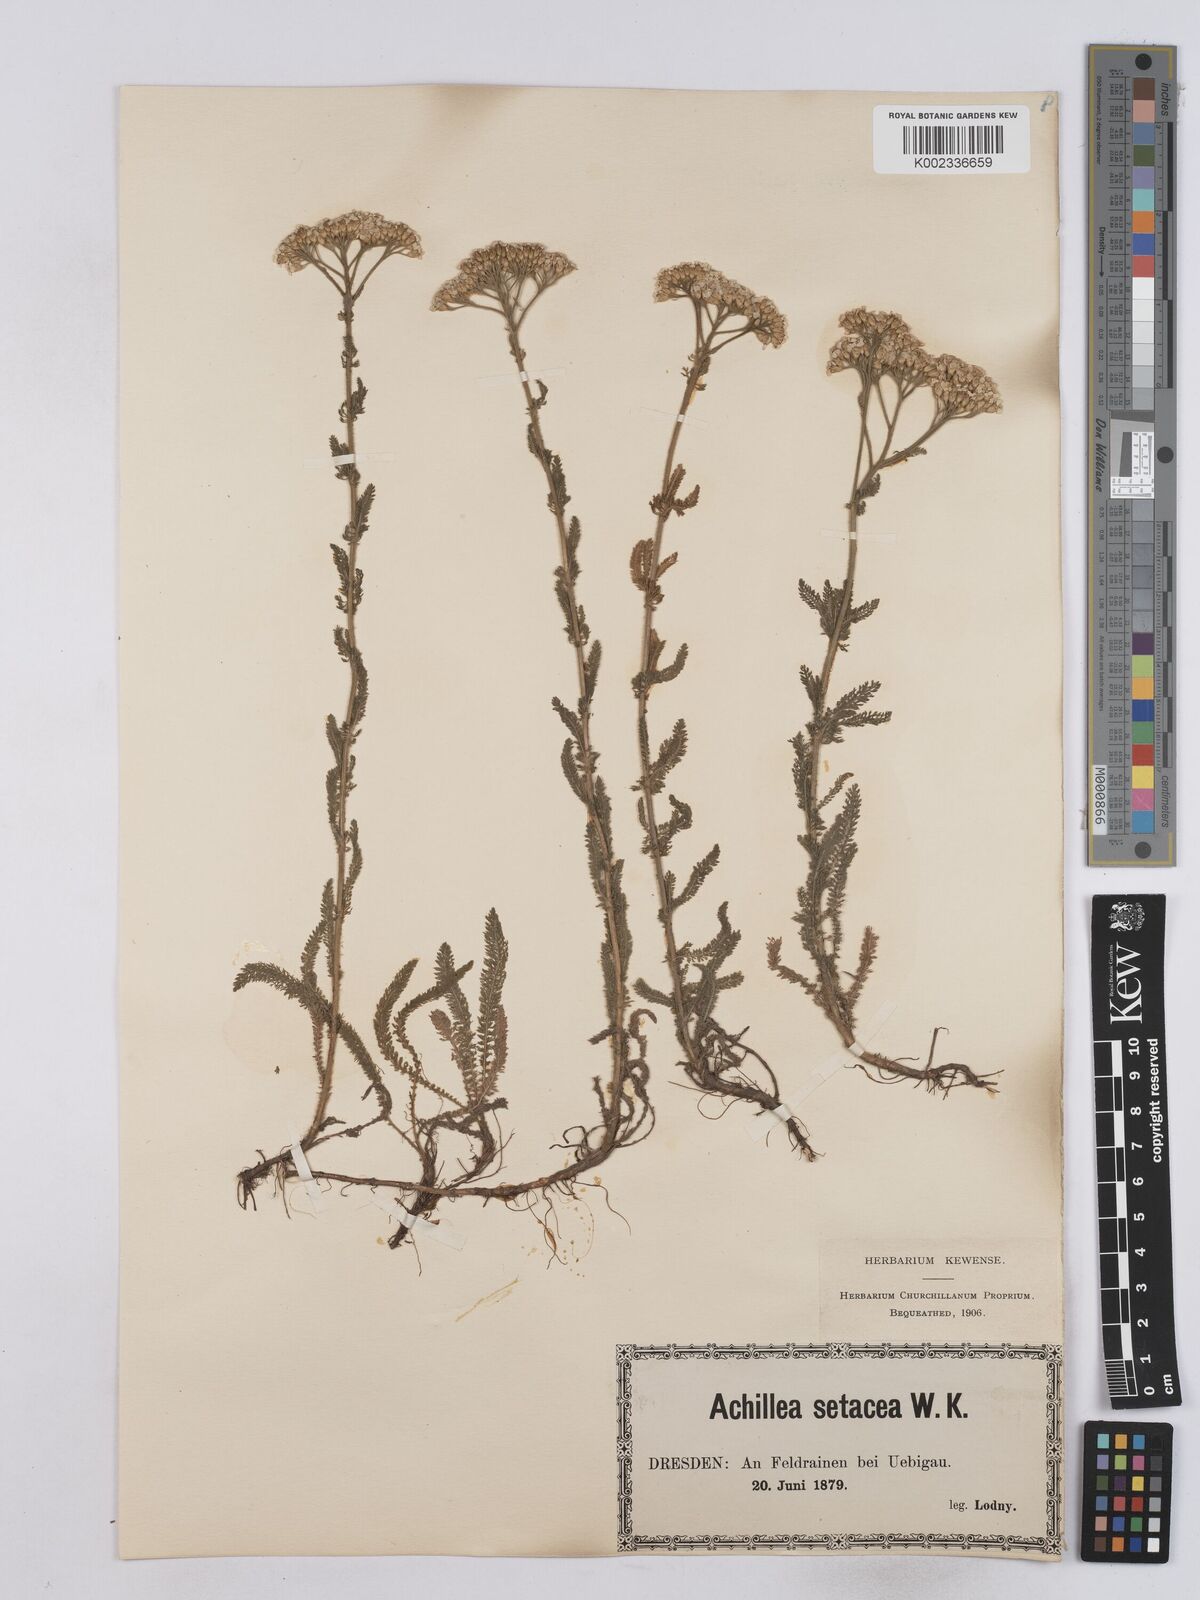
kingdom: Plantae
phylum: Tracheophyta
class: Magnoliopsida
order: Asterales
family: Asteraceae
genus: Achillea
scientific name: Achillea setacea
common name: Bristly yarrow
